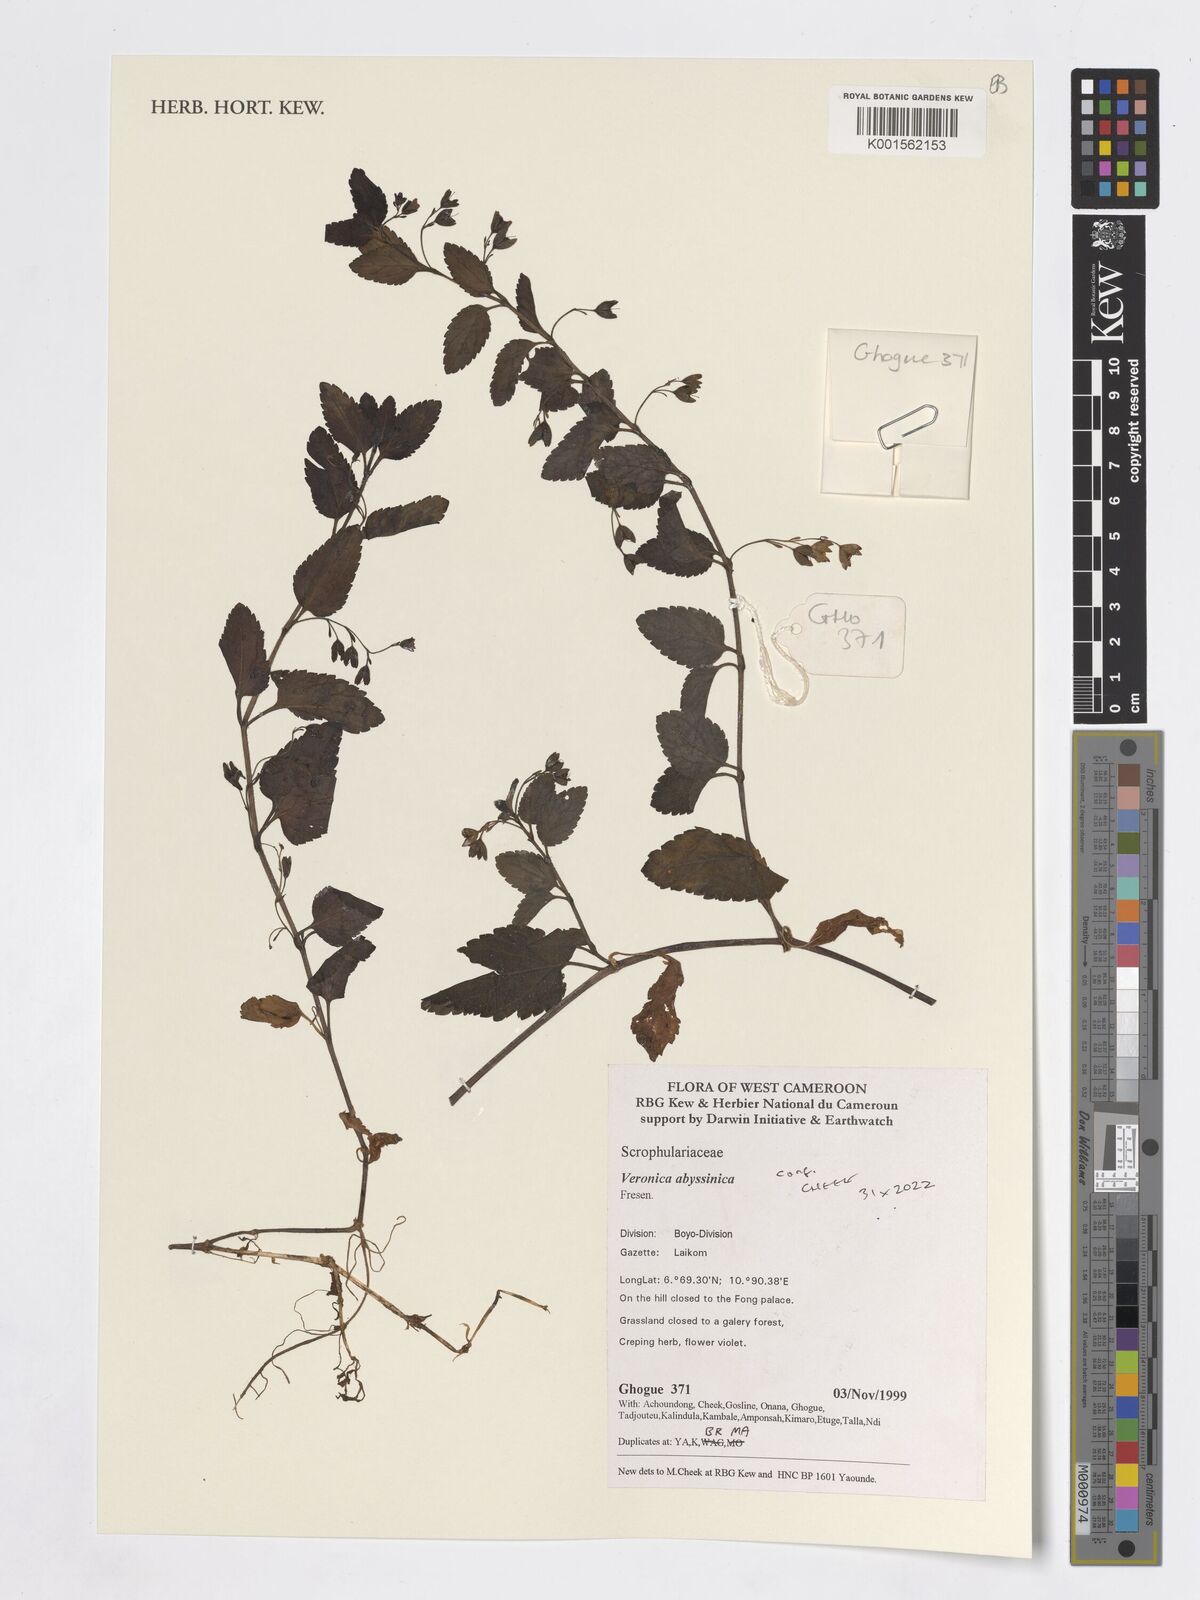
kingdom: Plantae
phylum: Tracheophyta
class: Magnoliopsida
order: Lamiales
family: Plantaginaceae
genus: Veronica
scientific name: Veronica abyssinica
